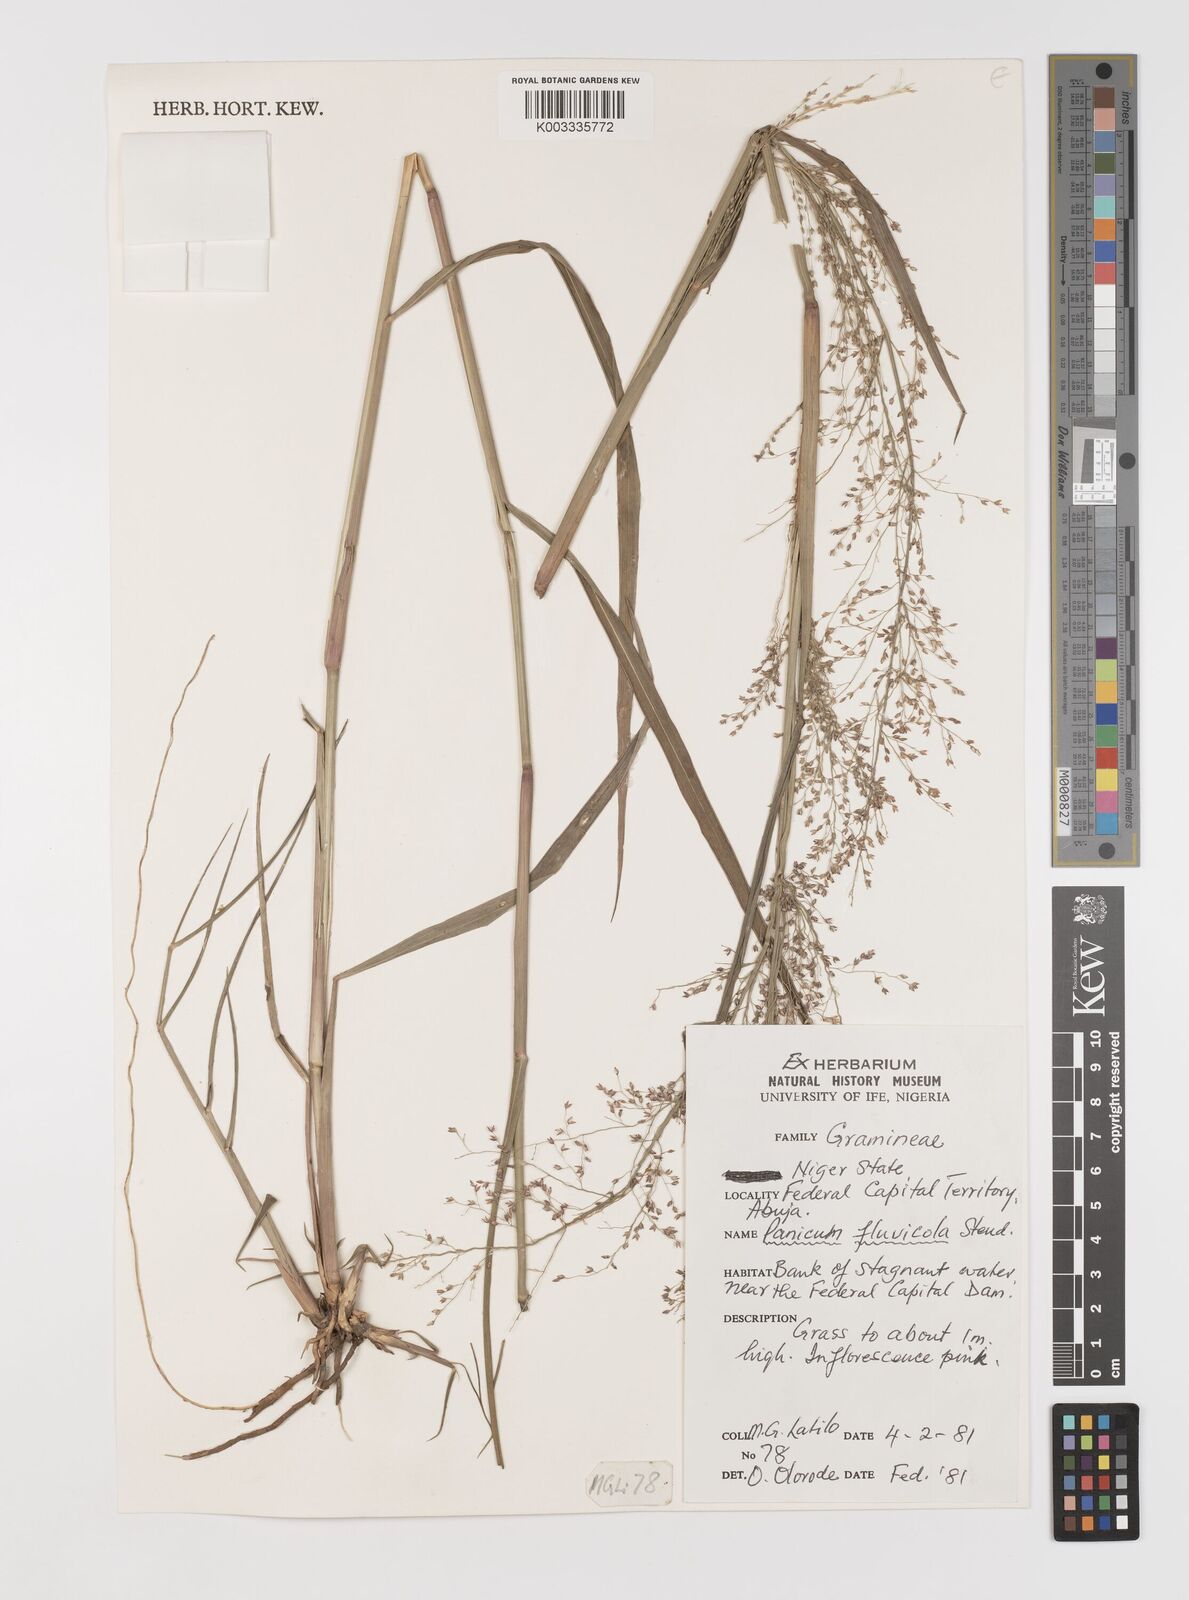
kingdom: Plantae
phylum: Tracheophyta
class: Liliopsida
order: Poales
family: Poaceae
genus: Panicum
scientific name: Panicum fluviicola
